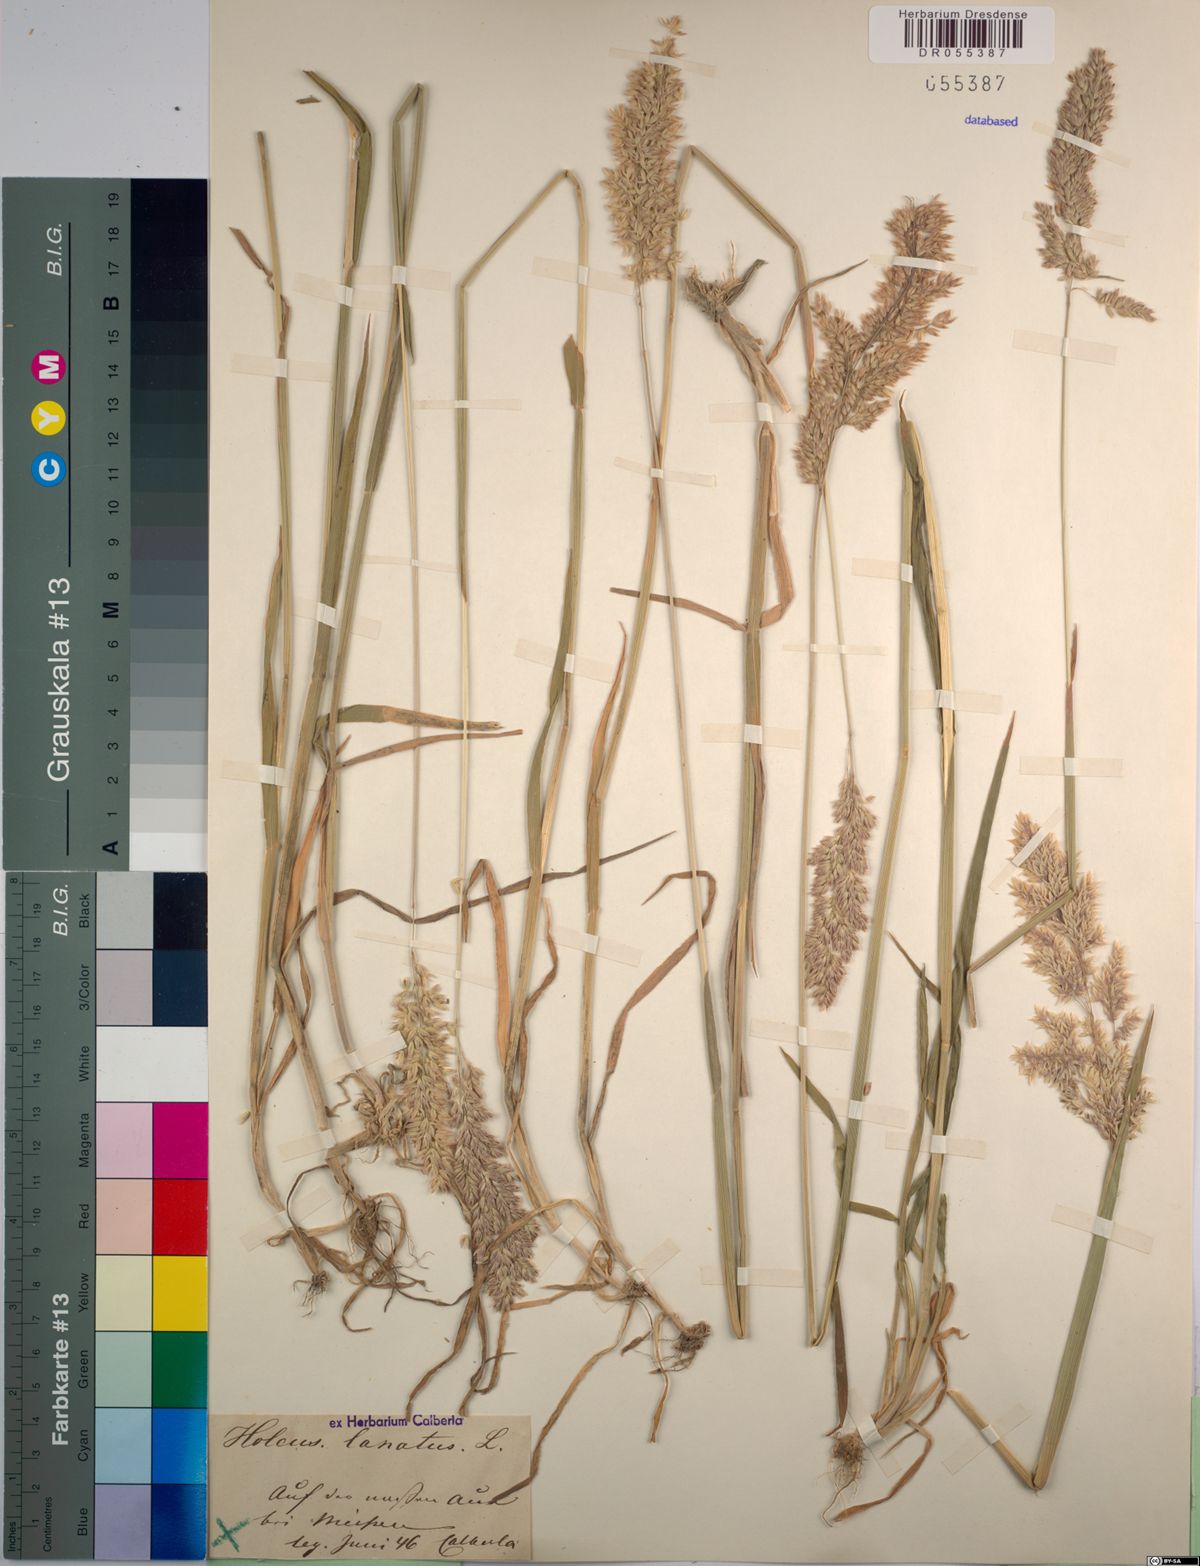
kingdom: Plantae
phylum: Tracheophyta
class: Liliopsida
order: Poales
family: Poaceae
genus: Holcus
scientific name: Holcus lanatus
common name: Yorkshire-fog
